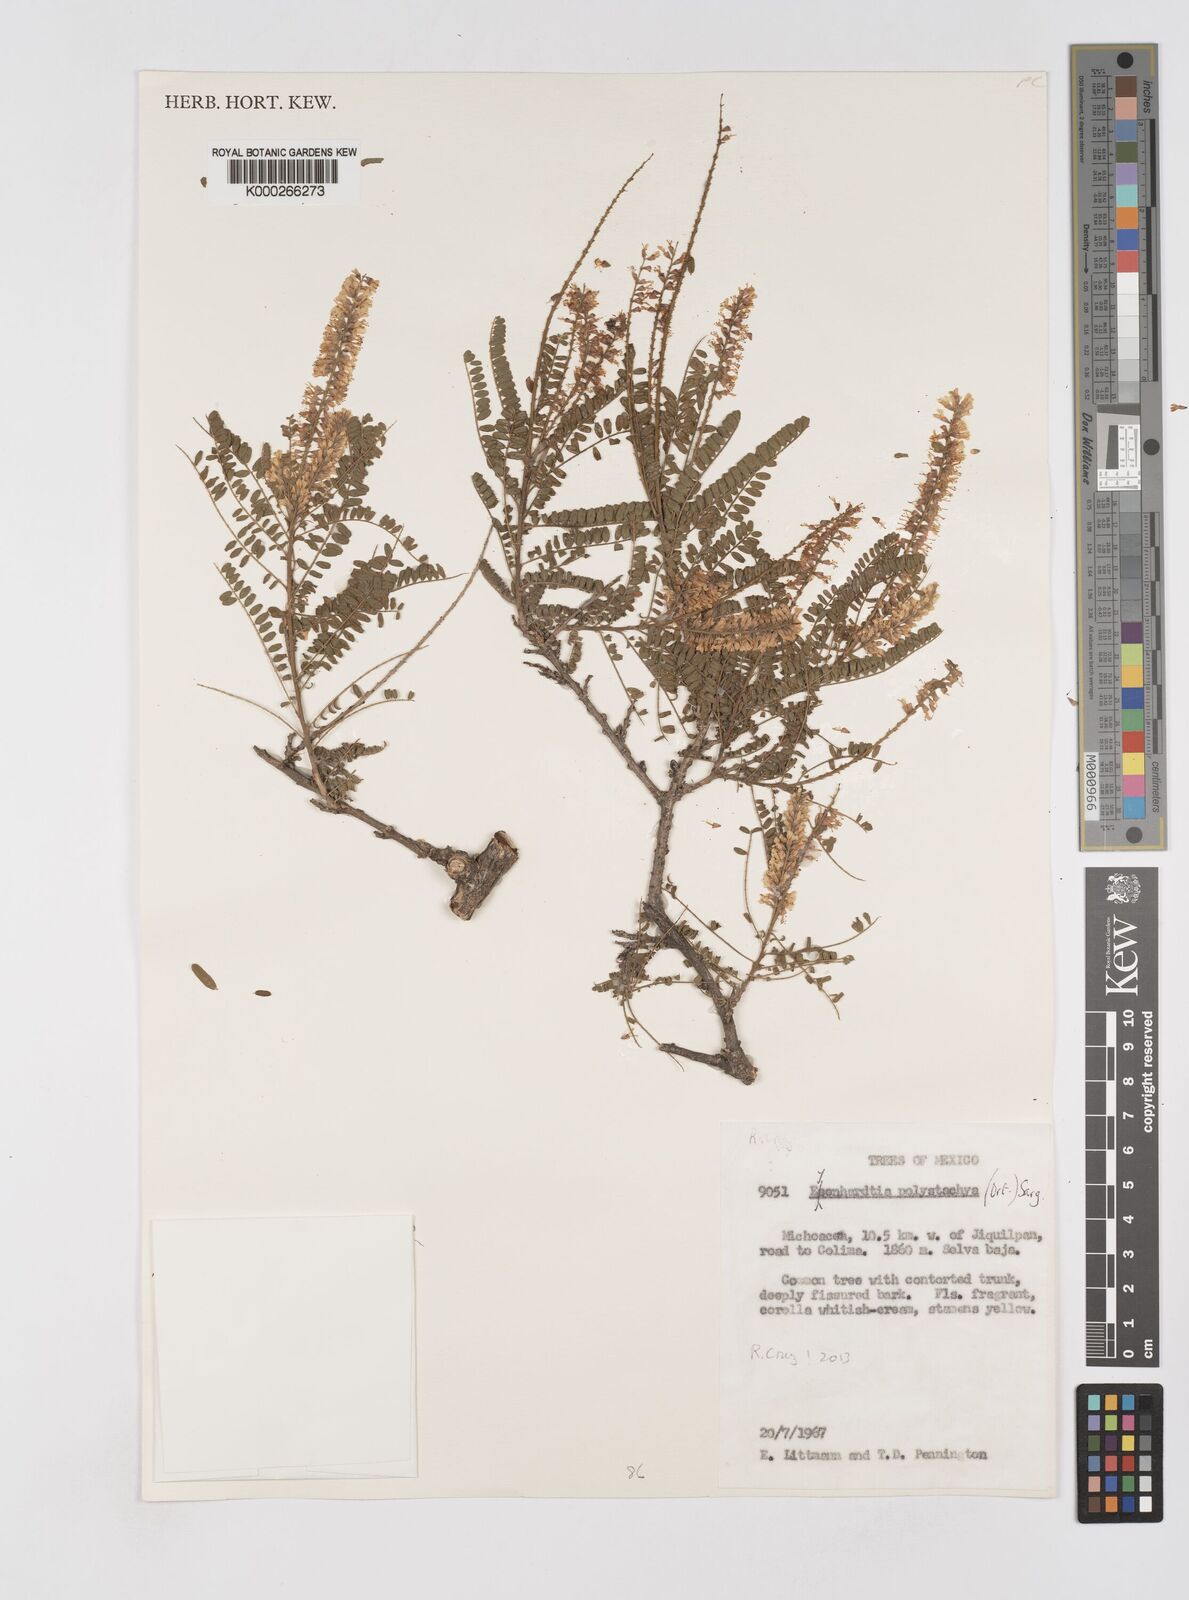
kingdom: Plantae
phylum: Tracheophyta
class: Magnoliopsida
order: Fabales
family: Fabaceae
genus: Eysenhardtia
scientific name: Eysenhardtia polystachya
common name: Kidneywood
